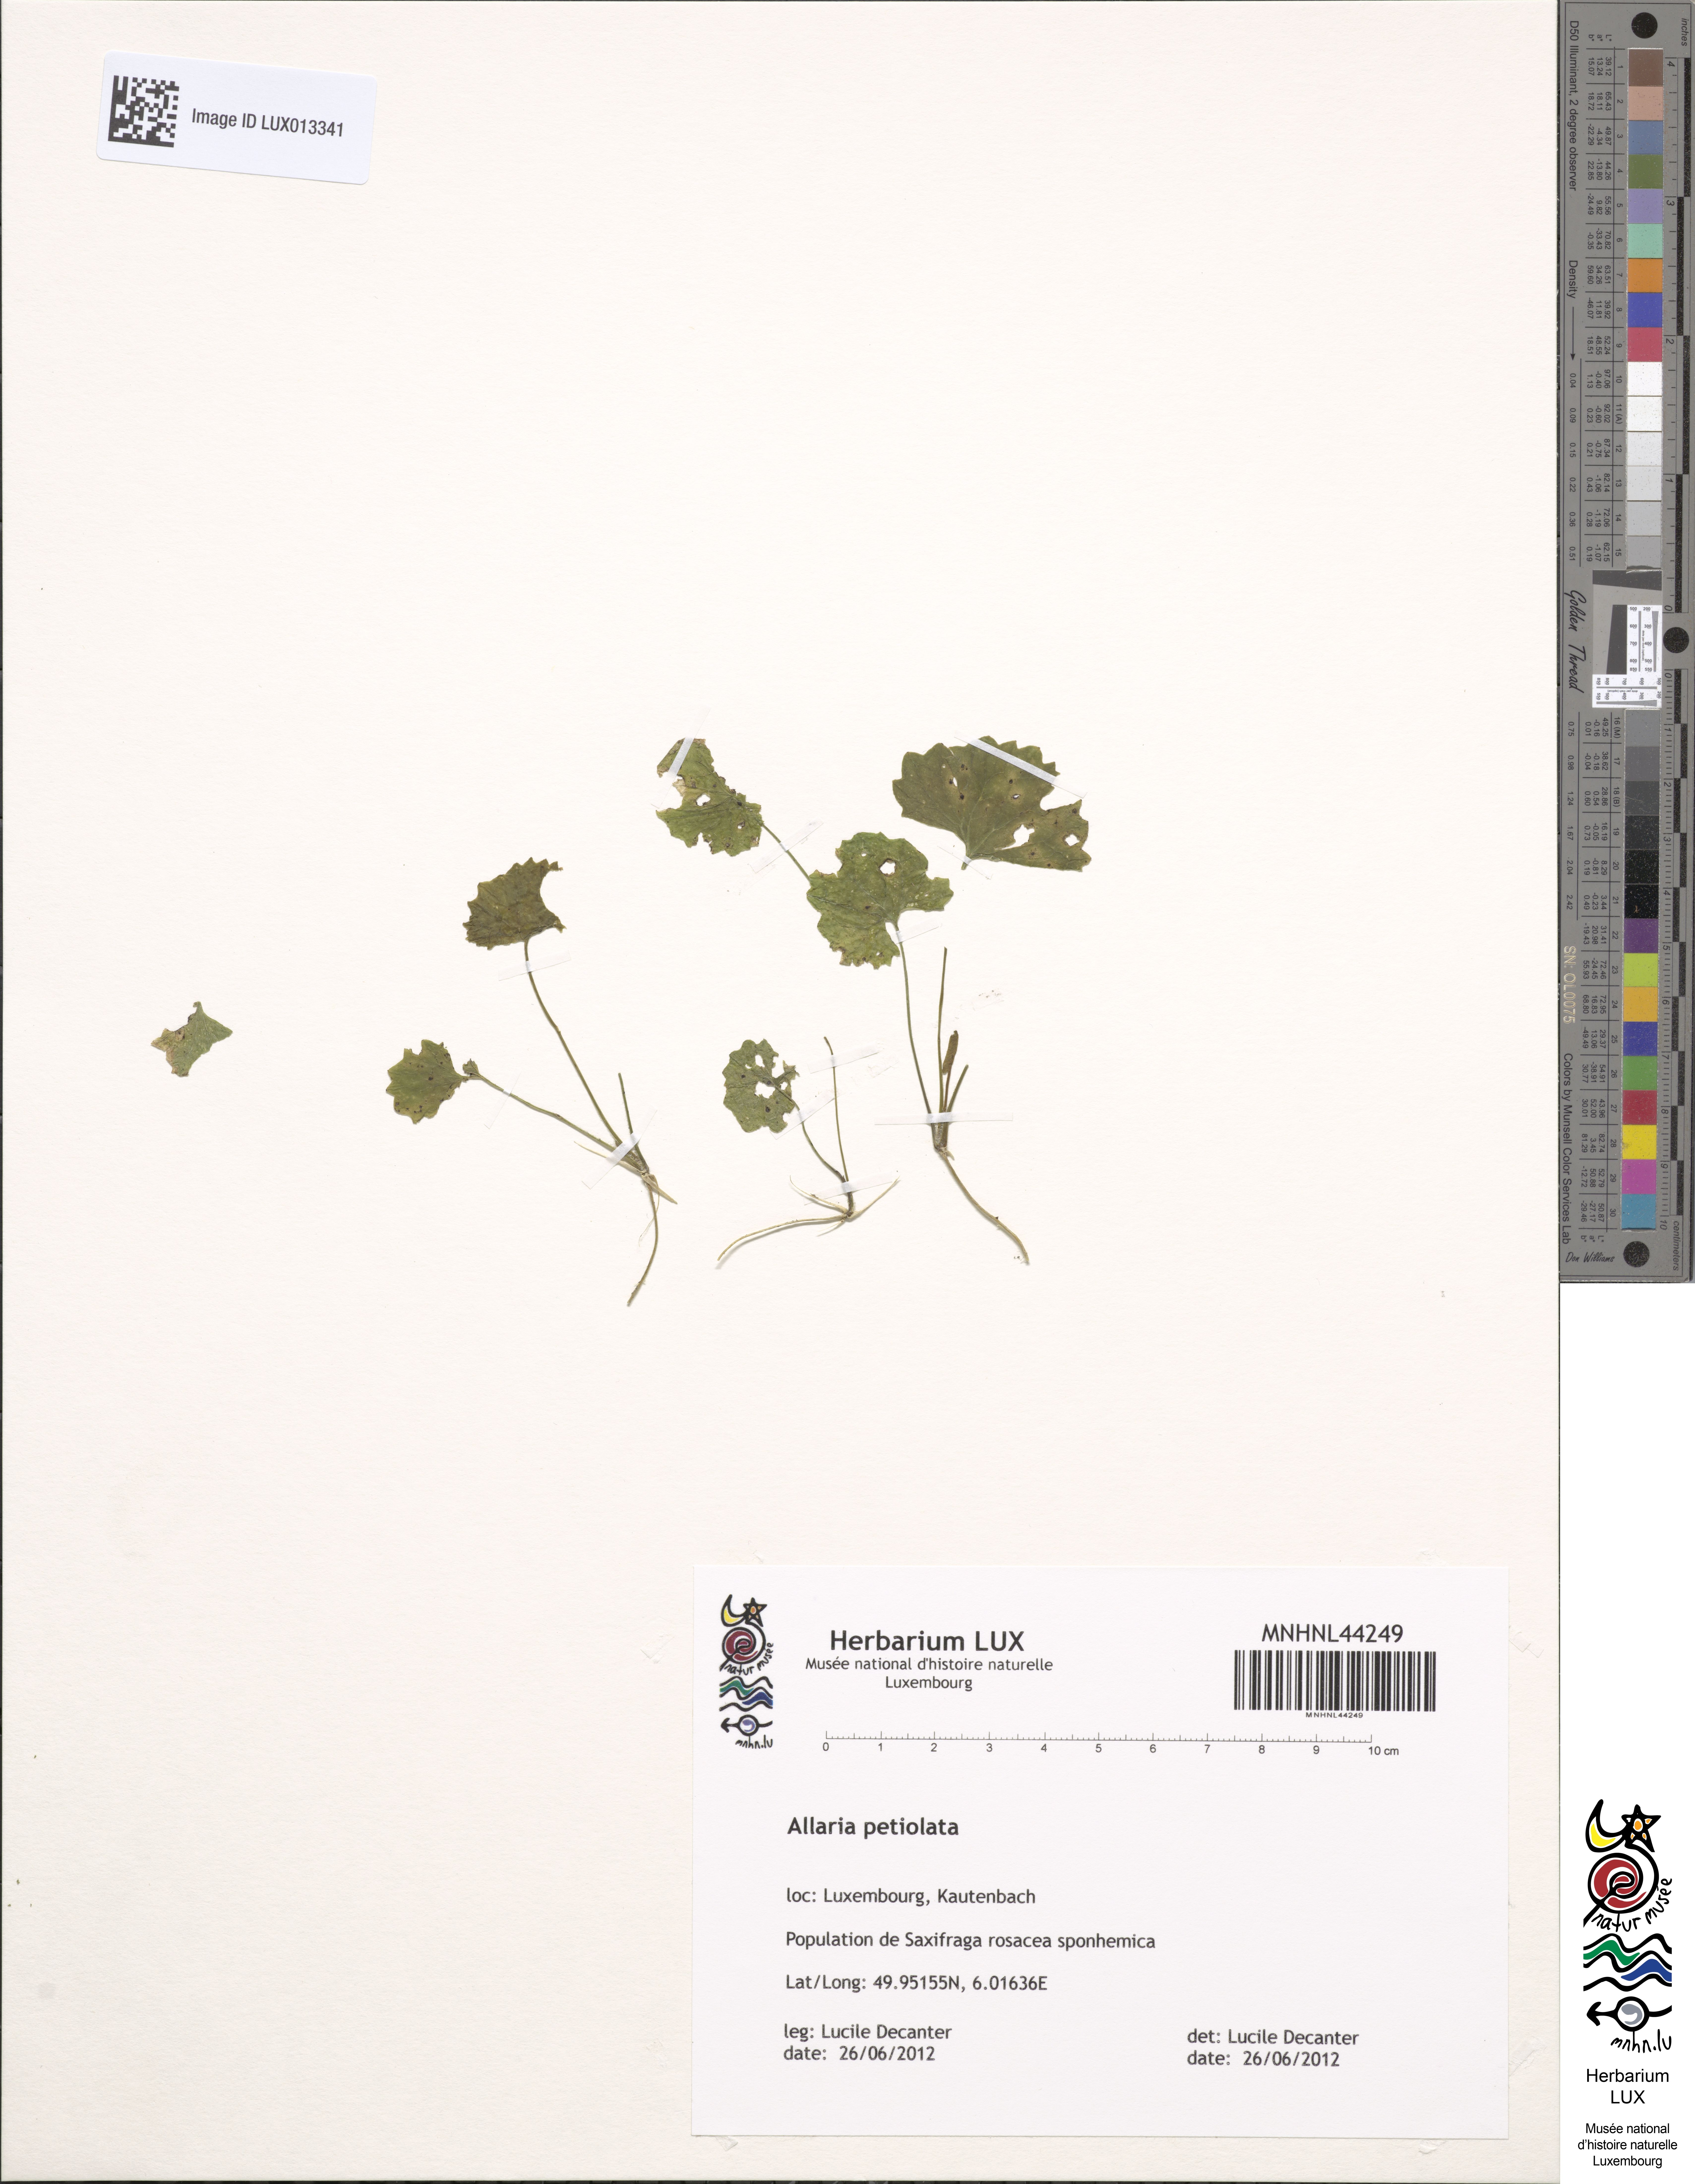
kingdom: Plantae
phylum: Tracheophyta
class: Magnoliopsida
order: Brassicales
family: Brassicaceae
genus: Alliaria
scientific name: Alliaria petiolata
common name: Garlic mustard
